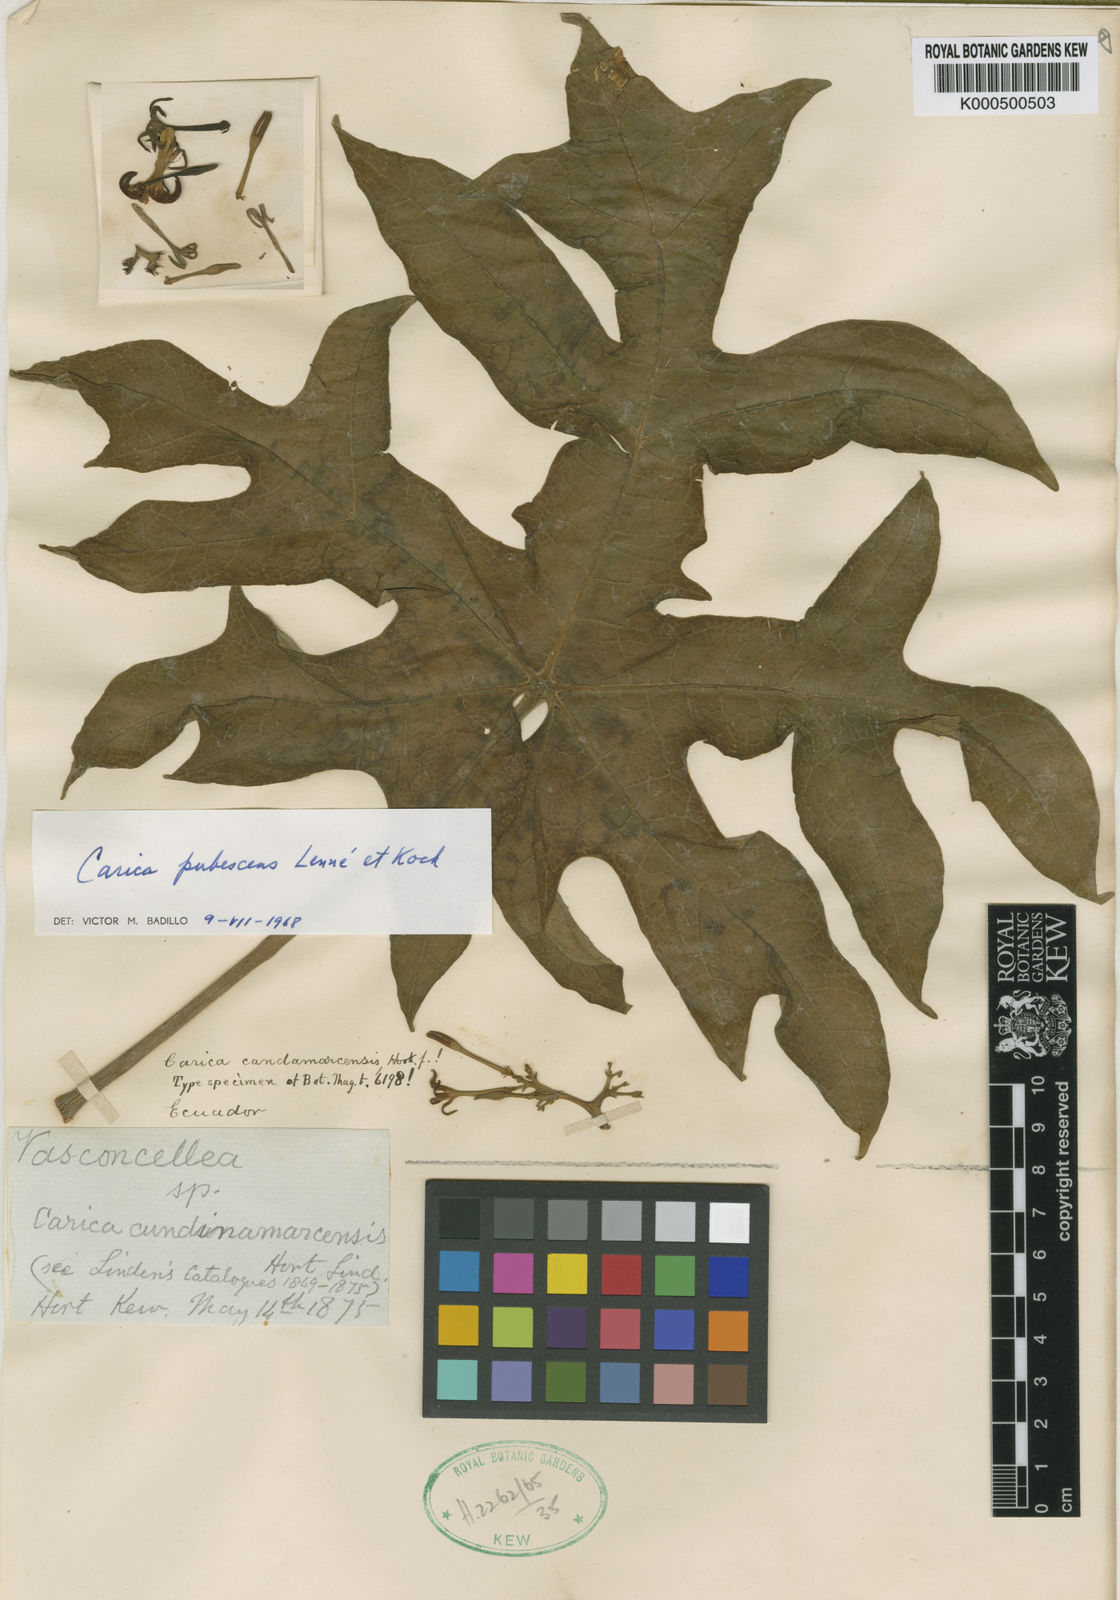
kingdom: Plantae
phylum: Tracheophyta
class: Magnoliopsida
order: Brassicales
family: Caricaceae
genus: Carica
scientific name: Carica
